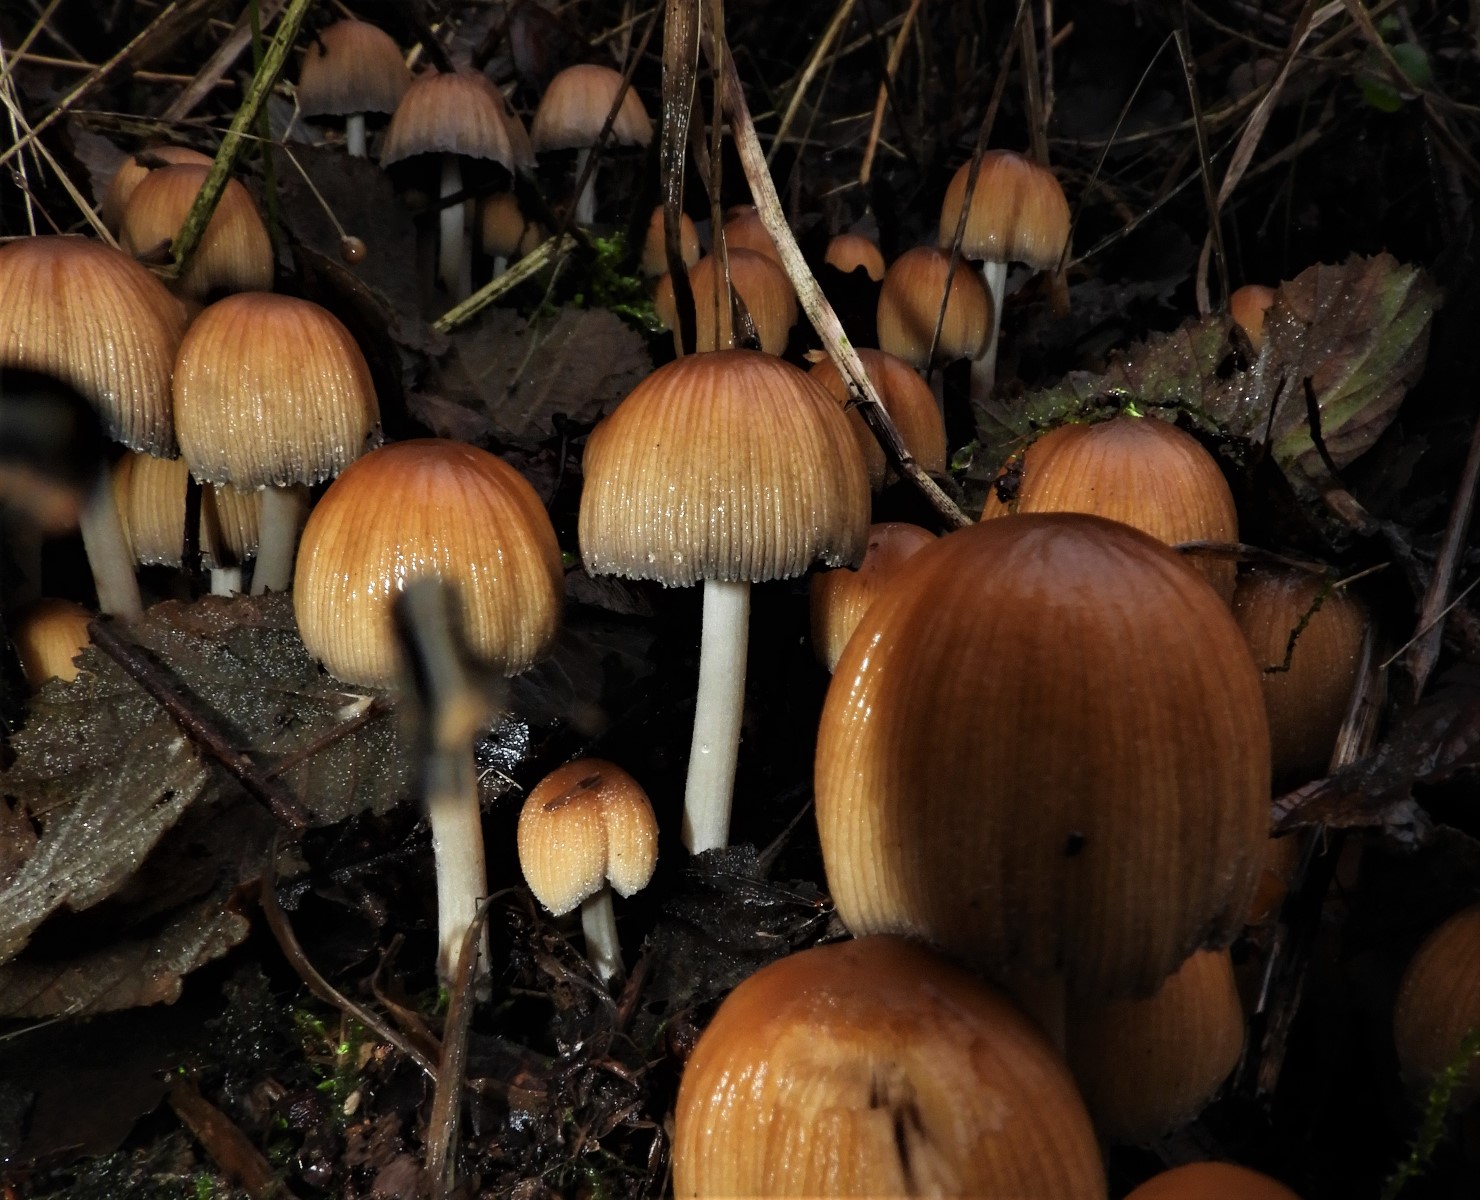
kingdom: Fungi
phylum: Basidiomycota
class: Agaricomycetes
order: Agaricales
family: Psathyrellaceae
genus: Coprinellus
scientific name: Coprinellus micaceus
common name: glimmer-blækhat
